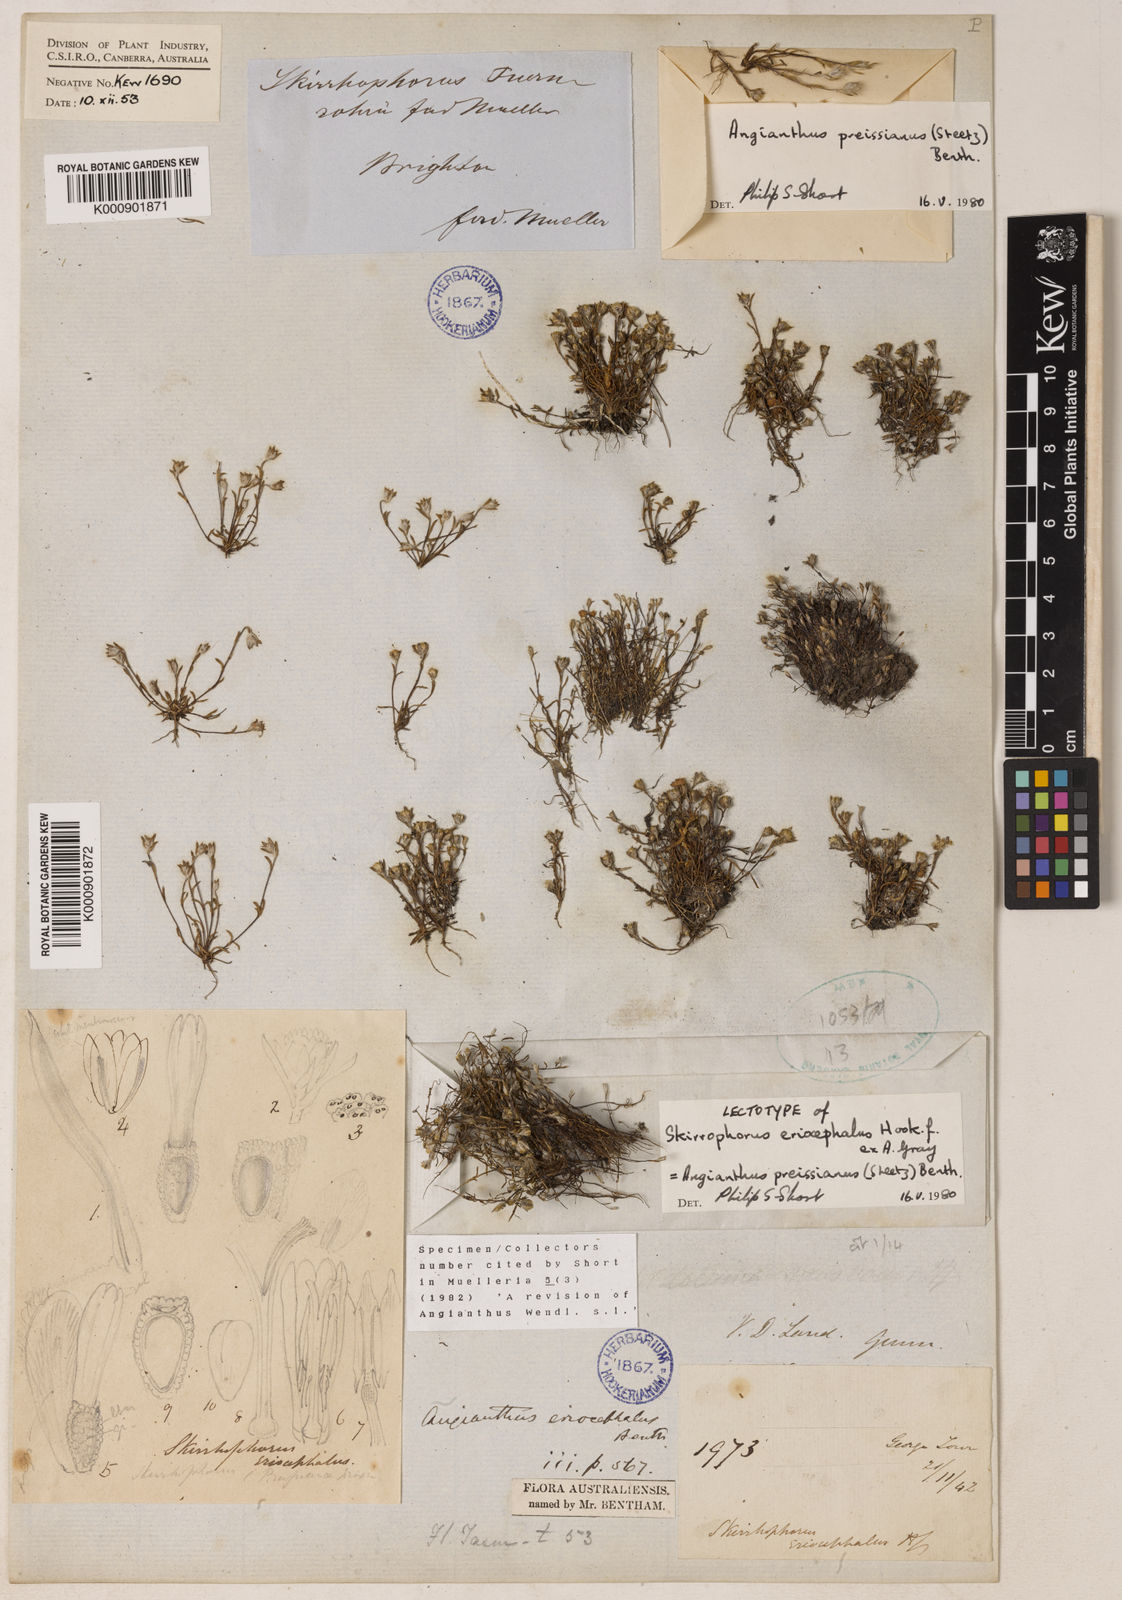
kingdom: Plantae
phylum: Tracheophyta
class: Magnoliopsida
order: Asterales
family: Asteraceae
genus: Angianthus
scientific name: Angianthus preissianus
